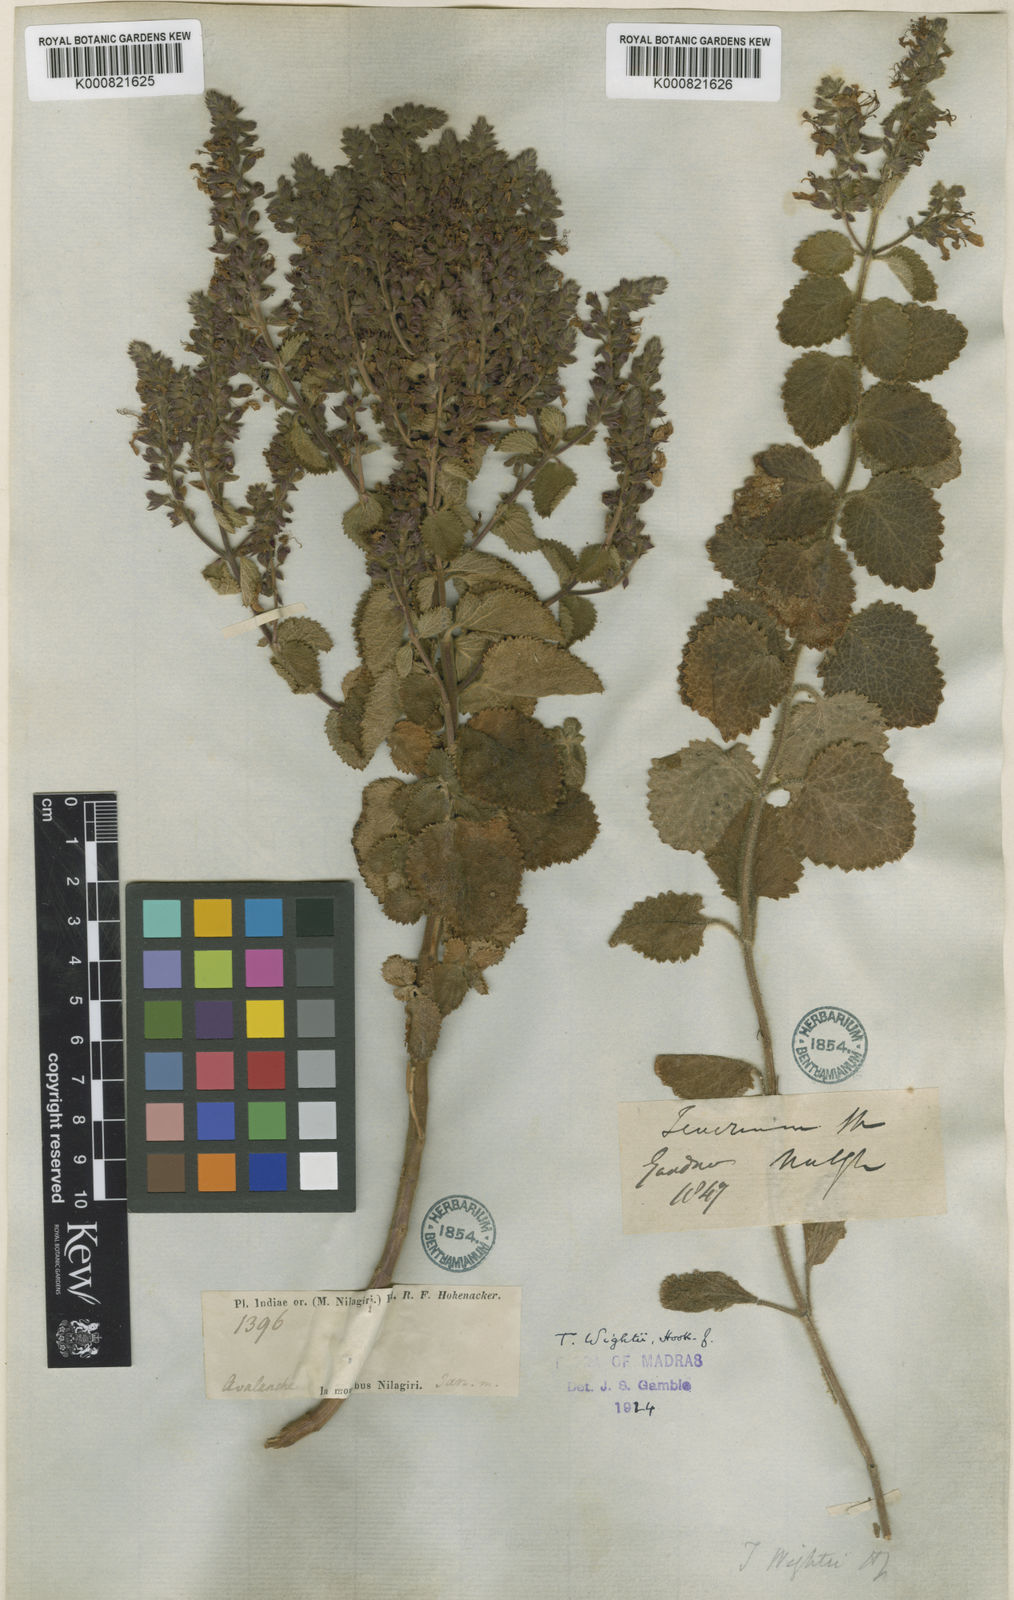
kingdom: Plantae
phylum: Tracheophyta
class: Magnoliopsida
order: Lamiales
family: Lamiaceae
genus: Teucrium
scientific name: Teucrium wightii
